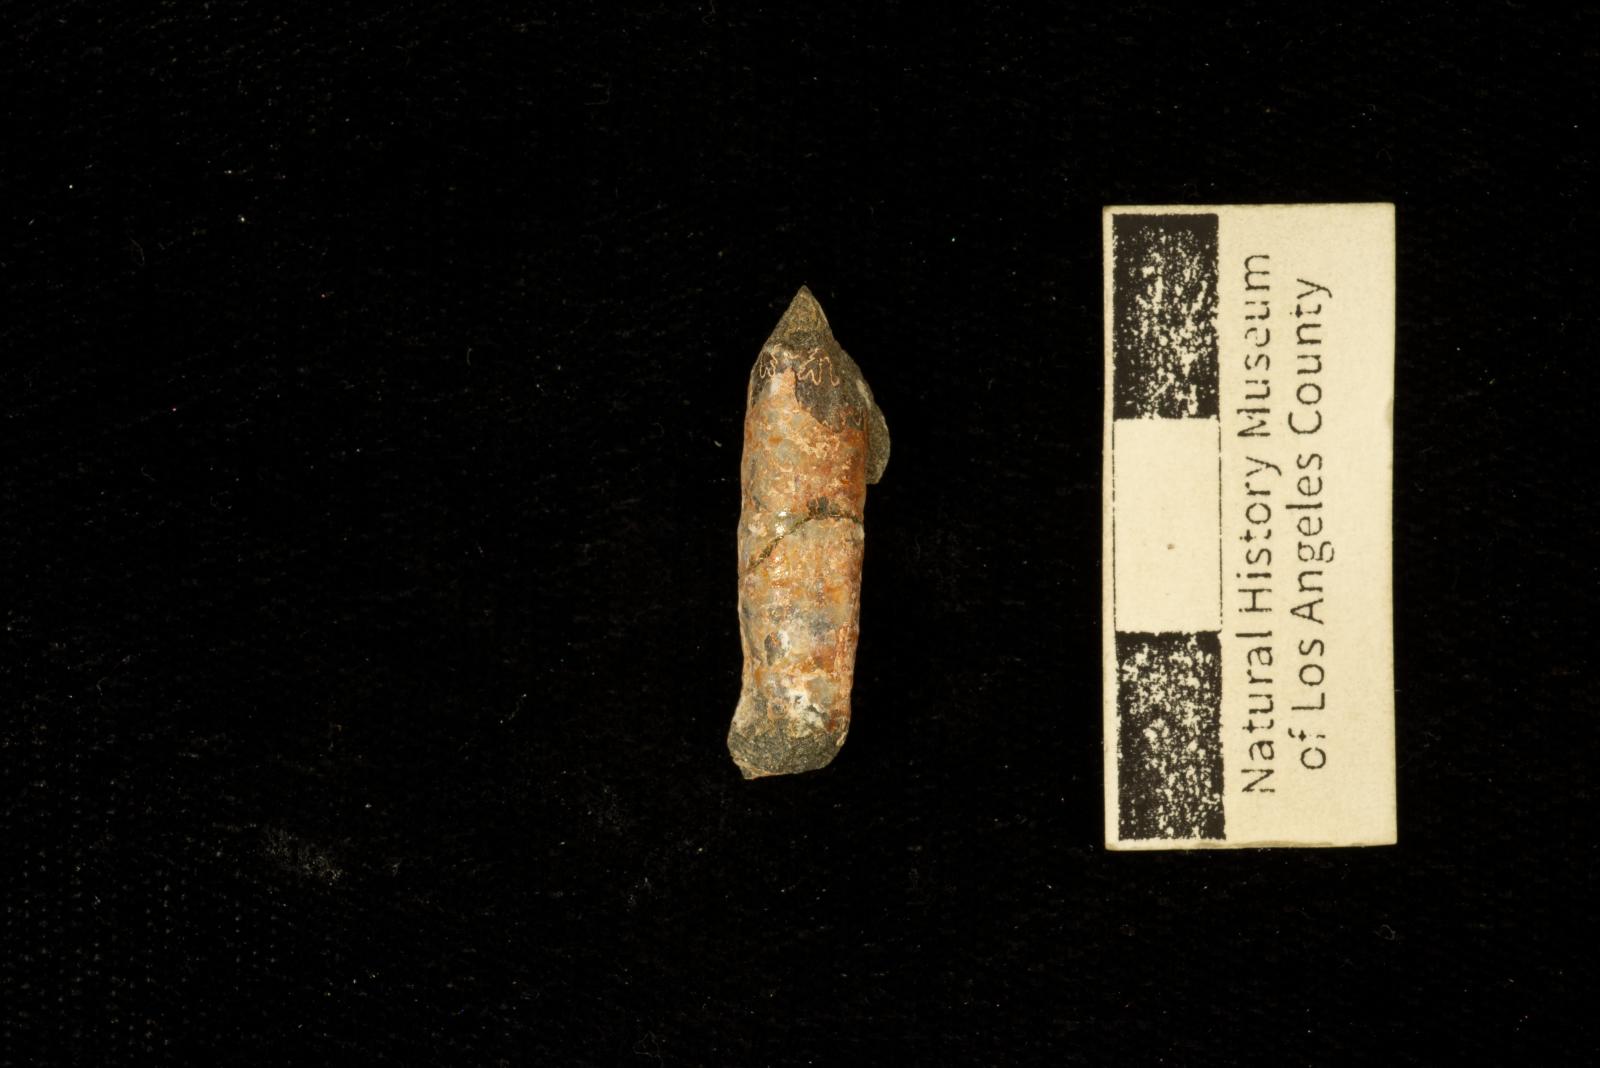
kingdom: Animalia
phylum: Mollusca
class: Cephalopoda
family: Diplomoceratidae
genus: Polyptychoceras
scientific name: Polyptychoceras
